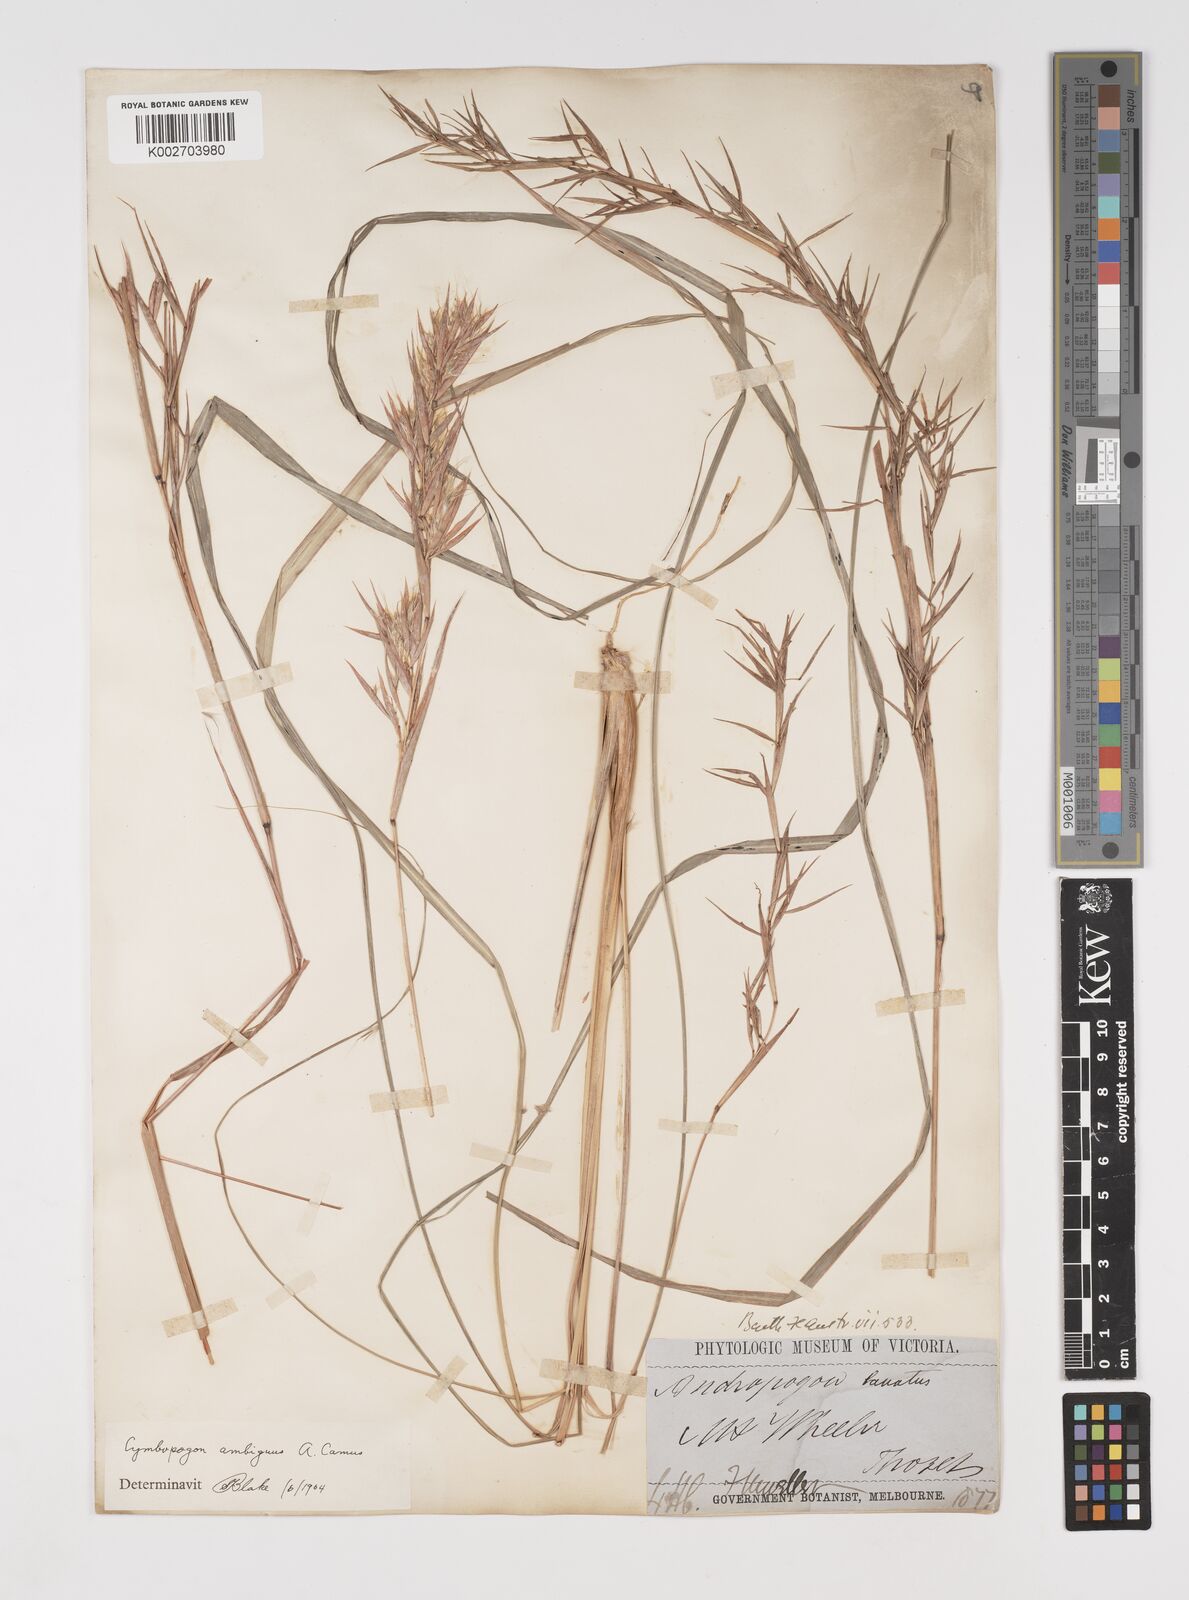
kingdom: Plantae
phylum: Tracheophyta
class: Liliopsida
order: Poales
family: Poaceae
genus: Cymbopogon
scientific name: Cymbopogon ambiguus
